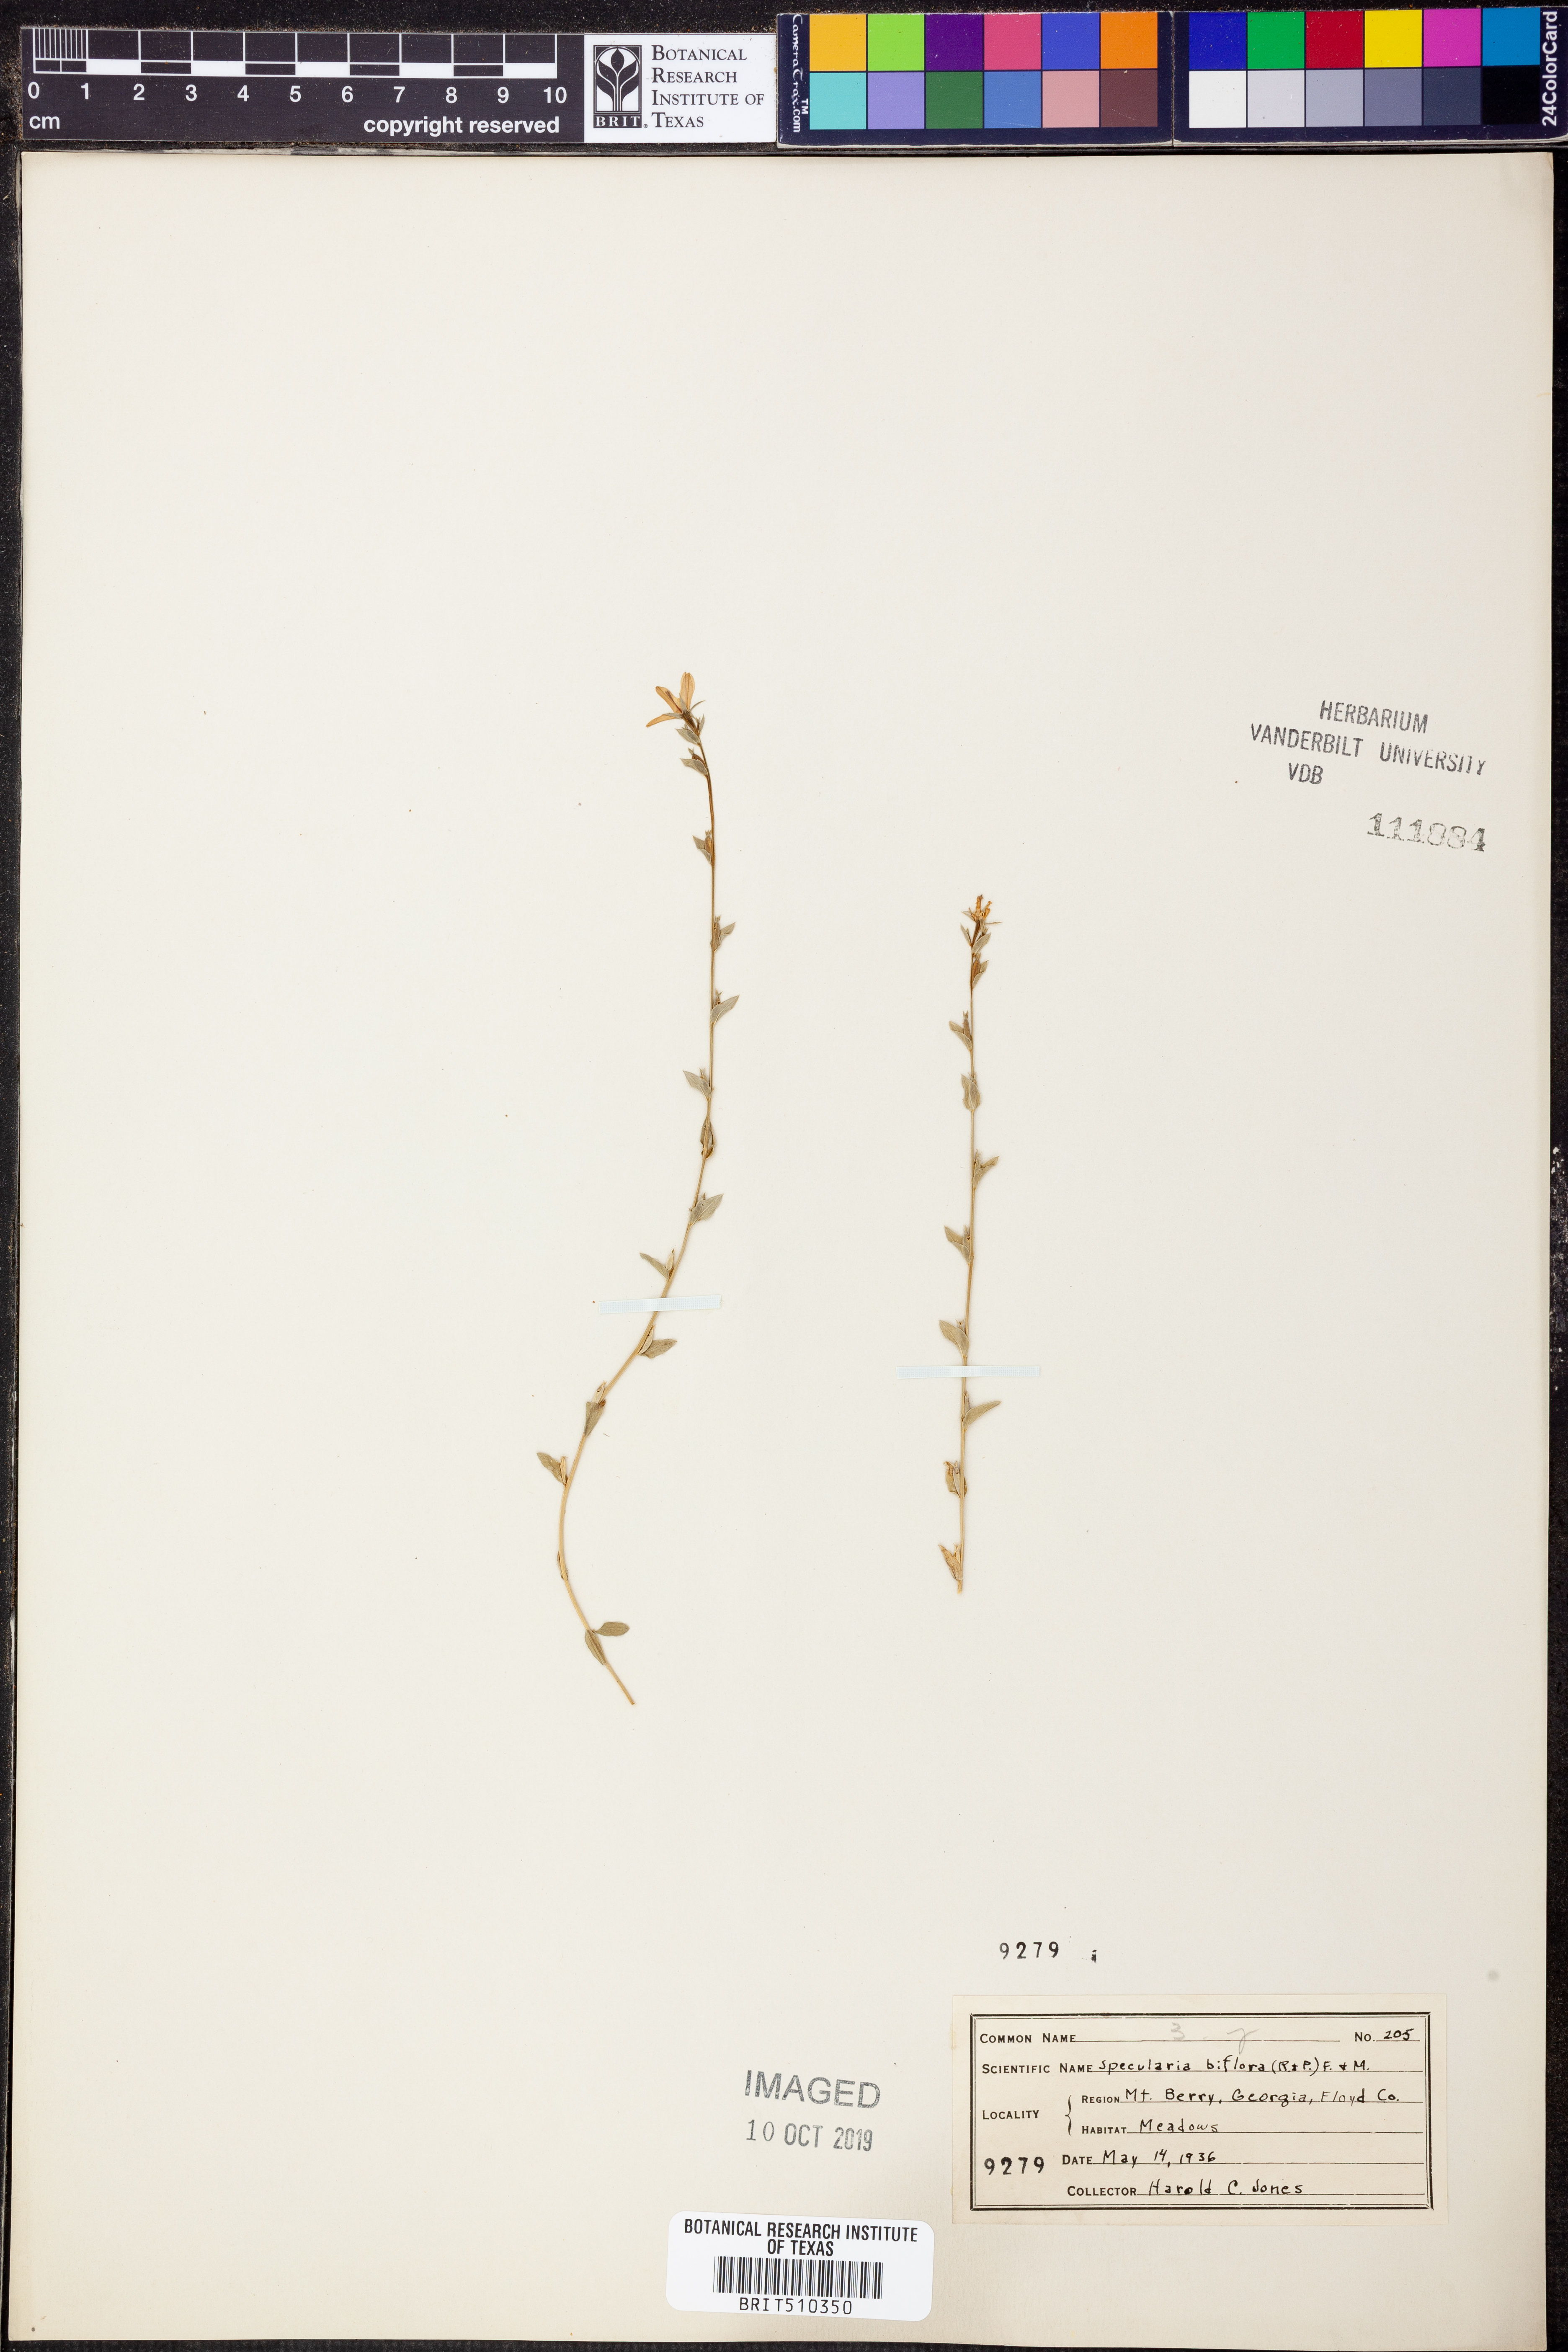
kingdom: Plantae
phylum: Tracheophyta
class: Magnoliopsida
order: Asterales
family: Campanulaceae
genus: Triodanis
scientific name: Triodanis perfoliata
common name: Clasping venus' looking-glass
